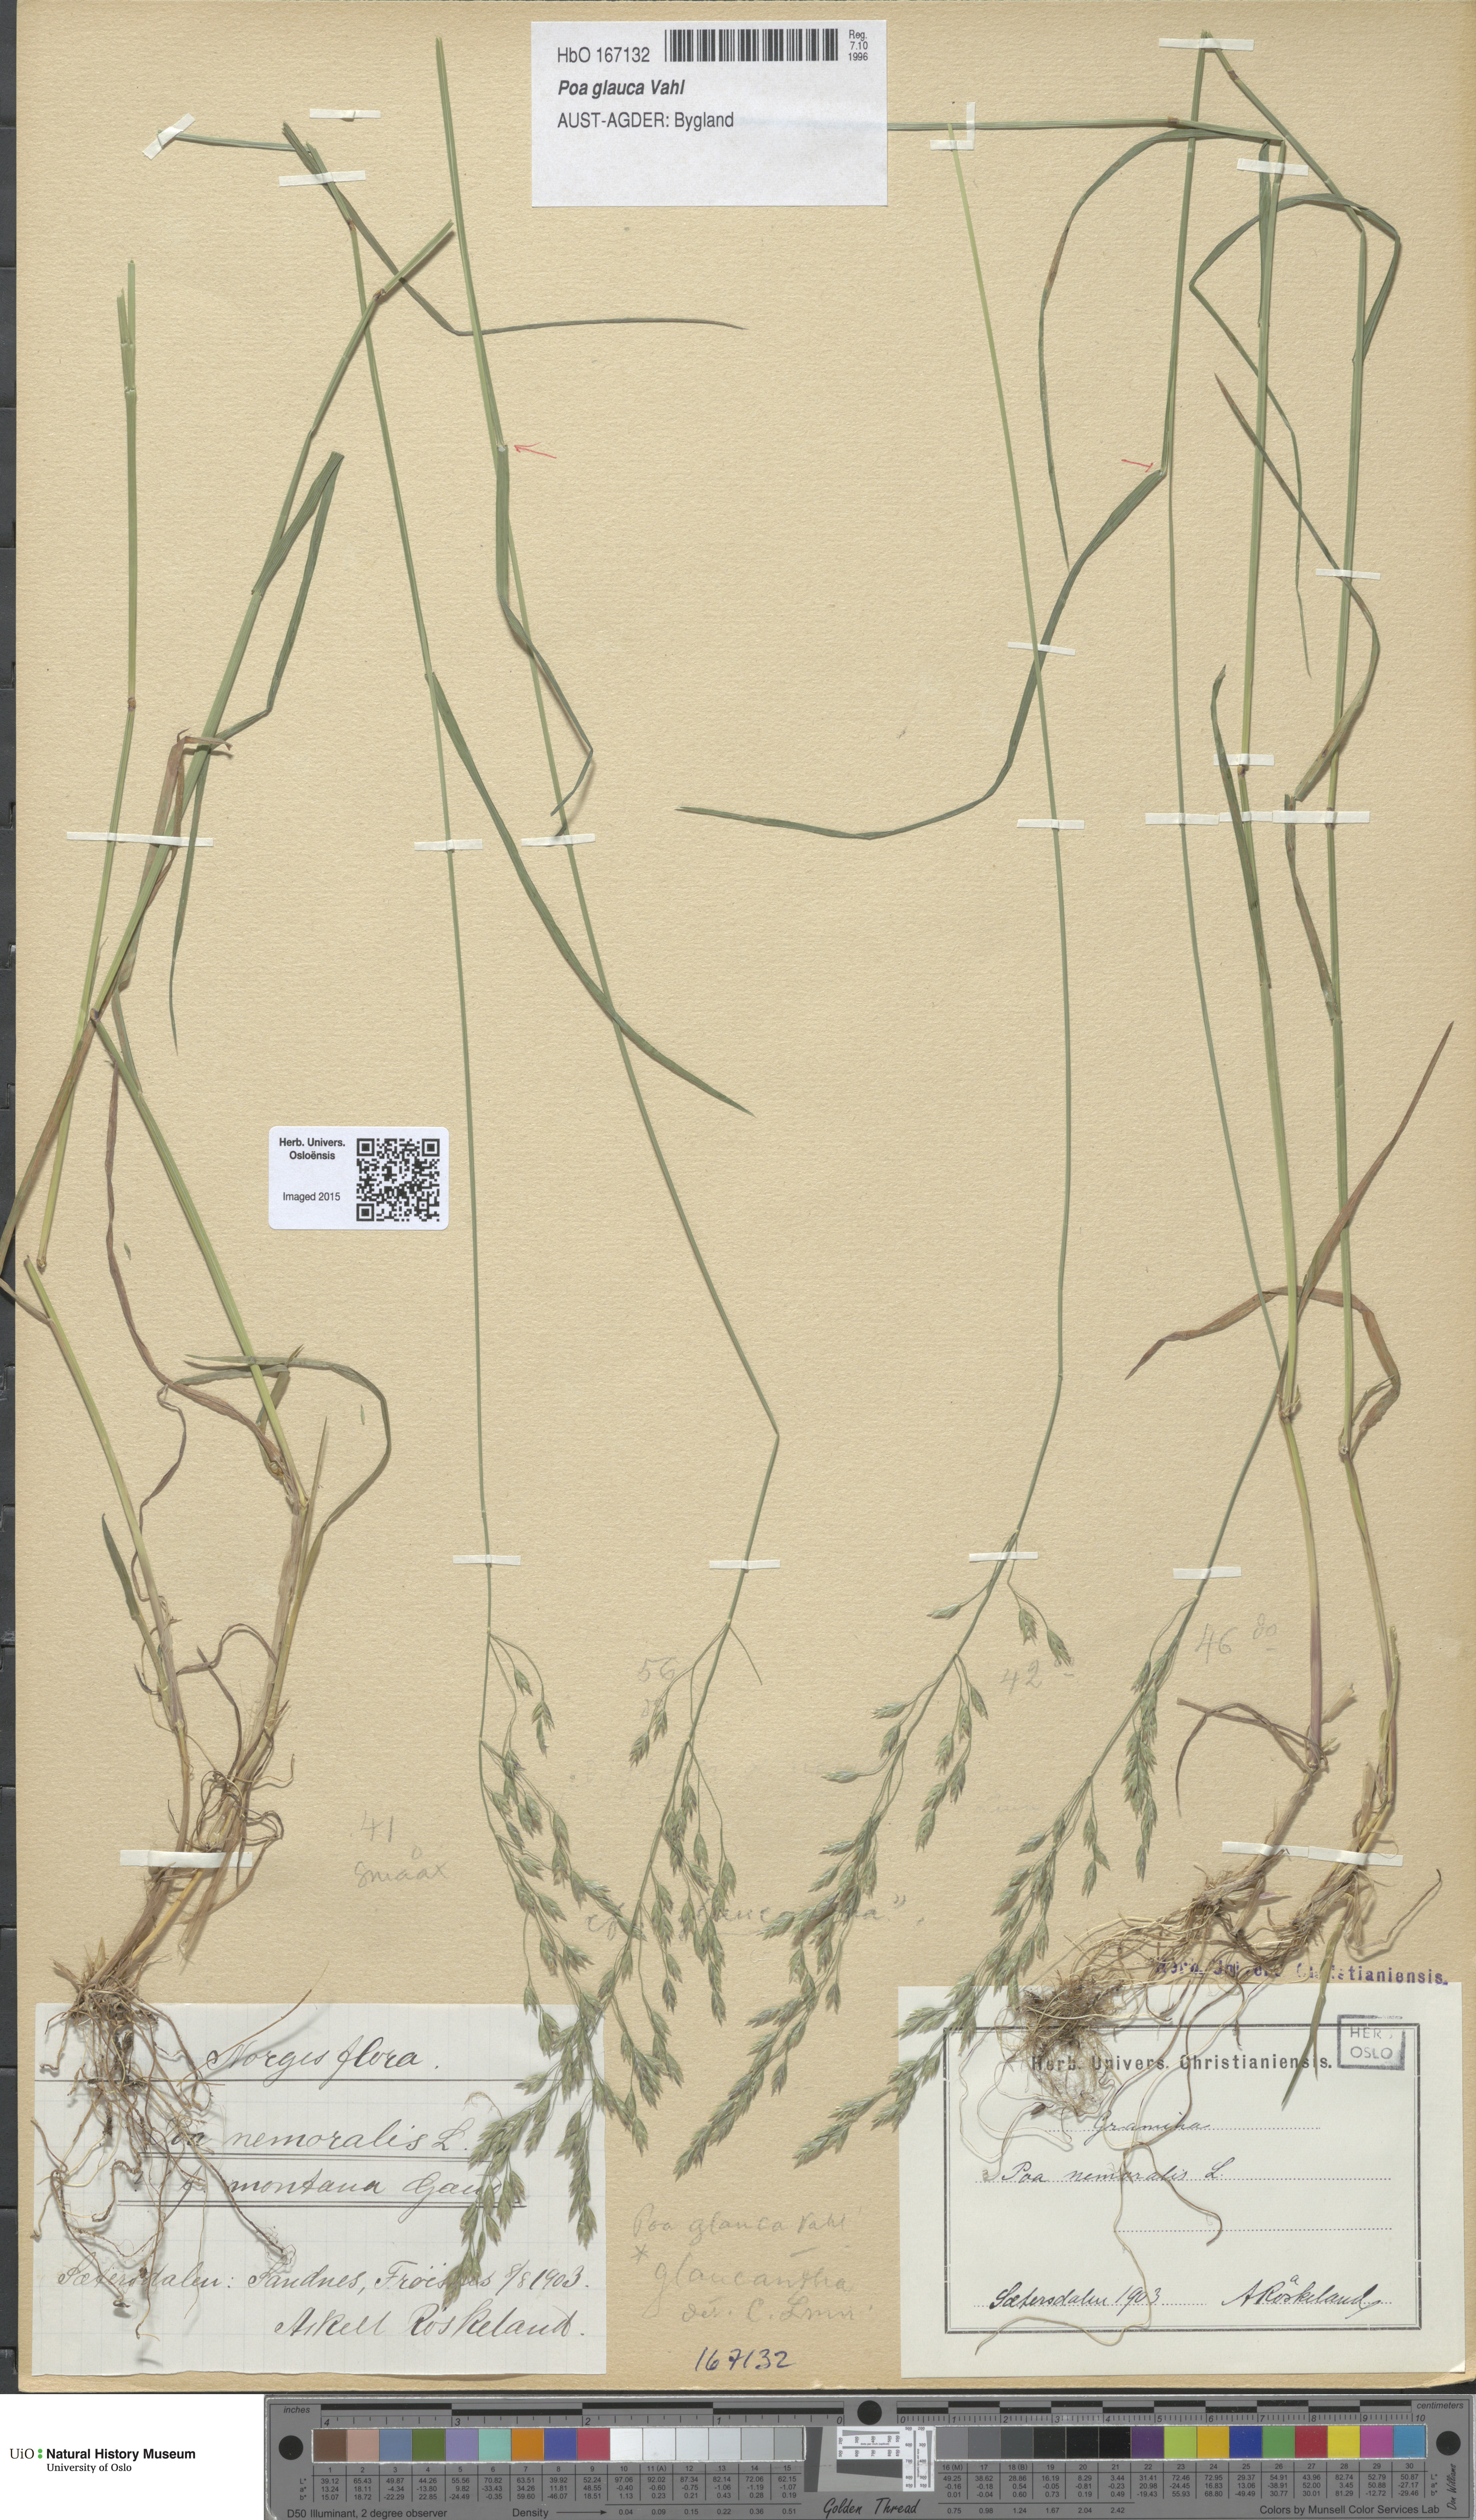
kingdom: Plantae
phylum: Tracheophyta
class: Liliopsida
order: Poales
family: Poaceae
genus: Poa
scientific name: Poa glauca
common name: Glaucous bluegrass
